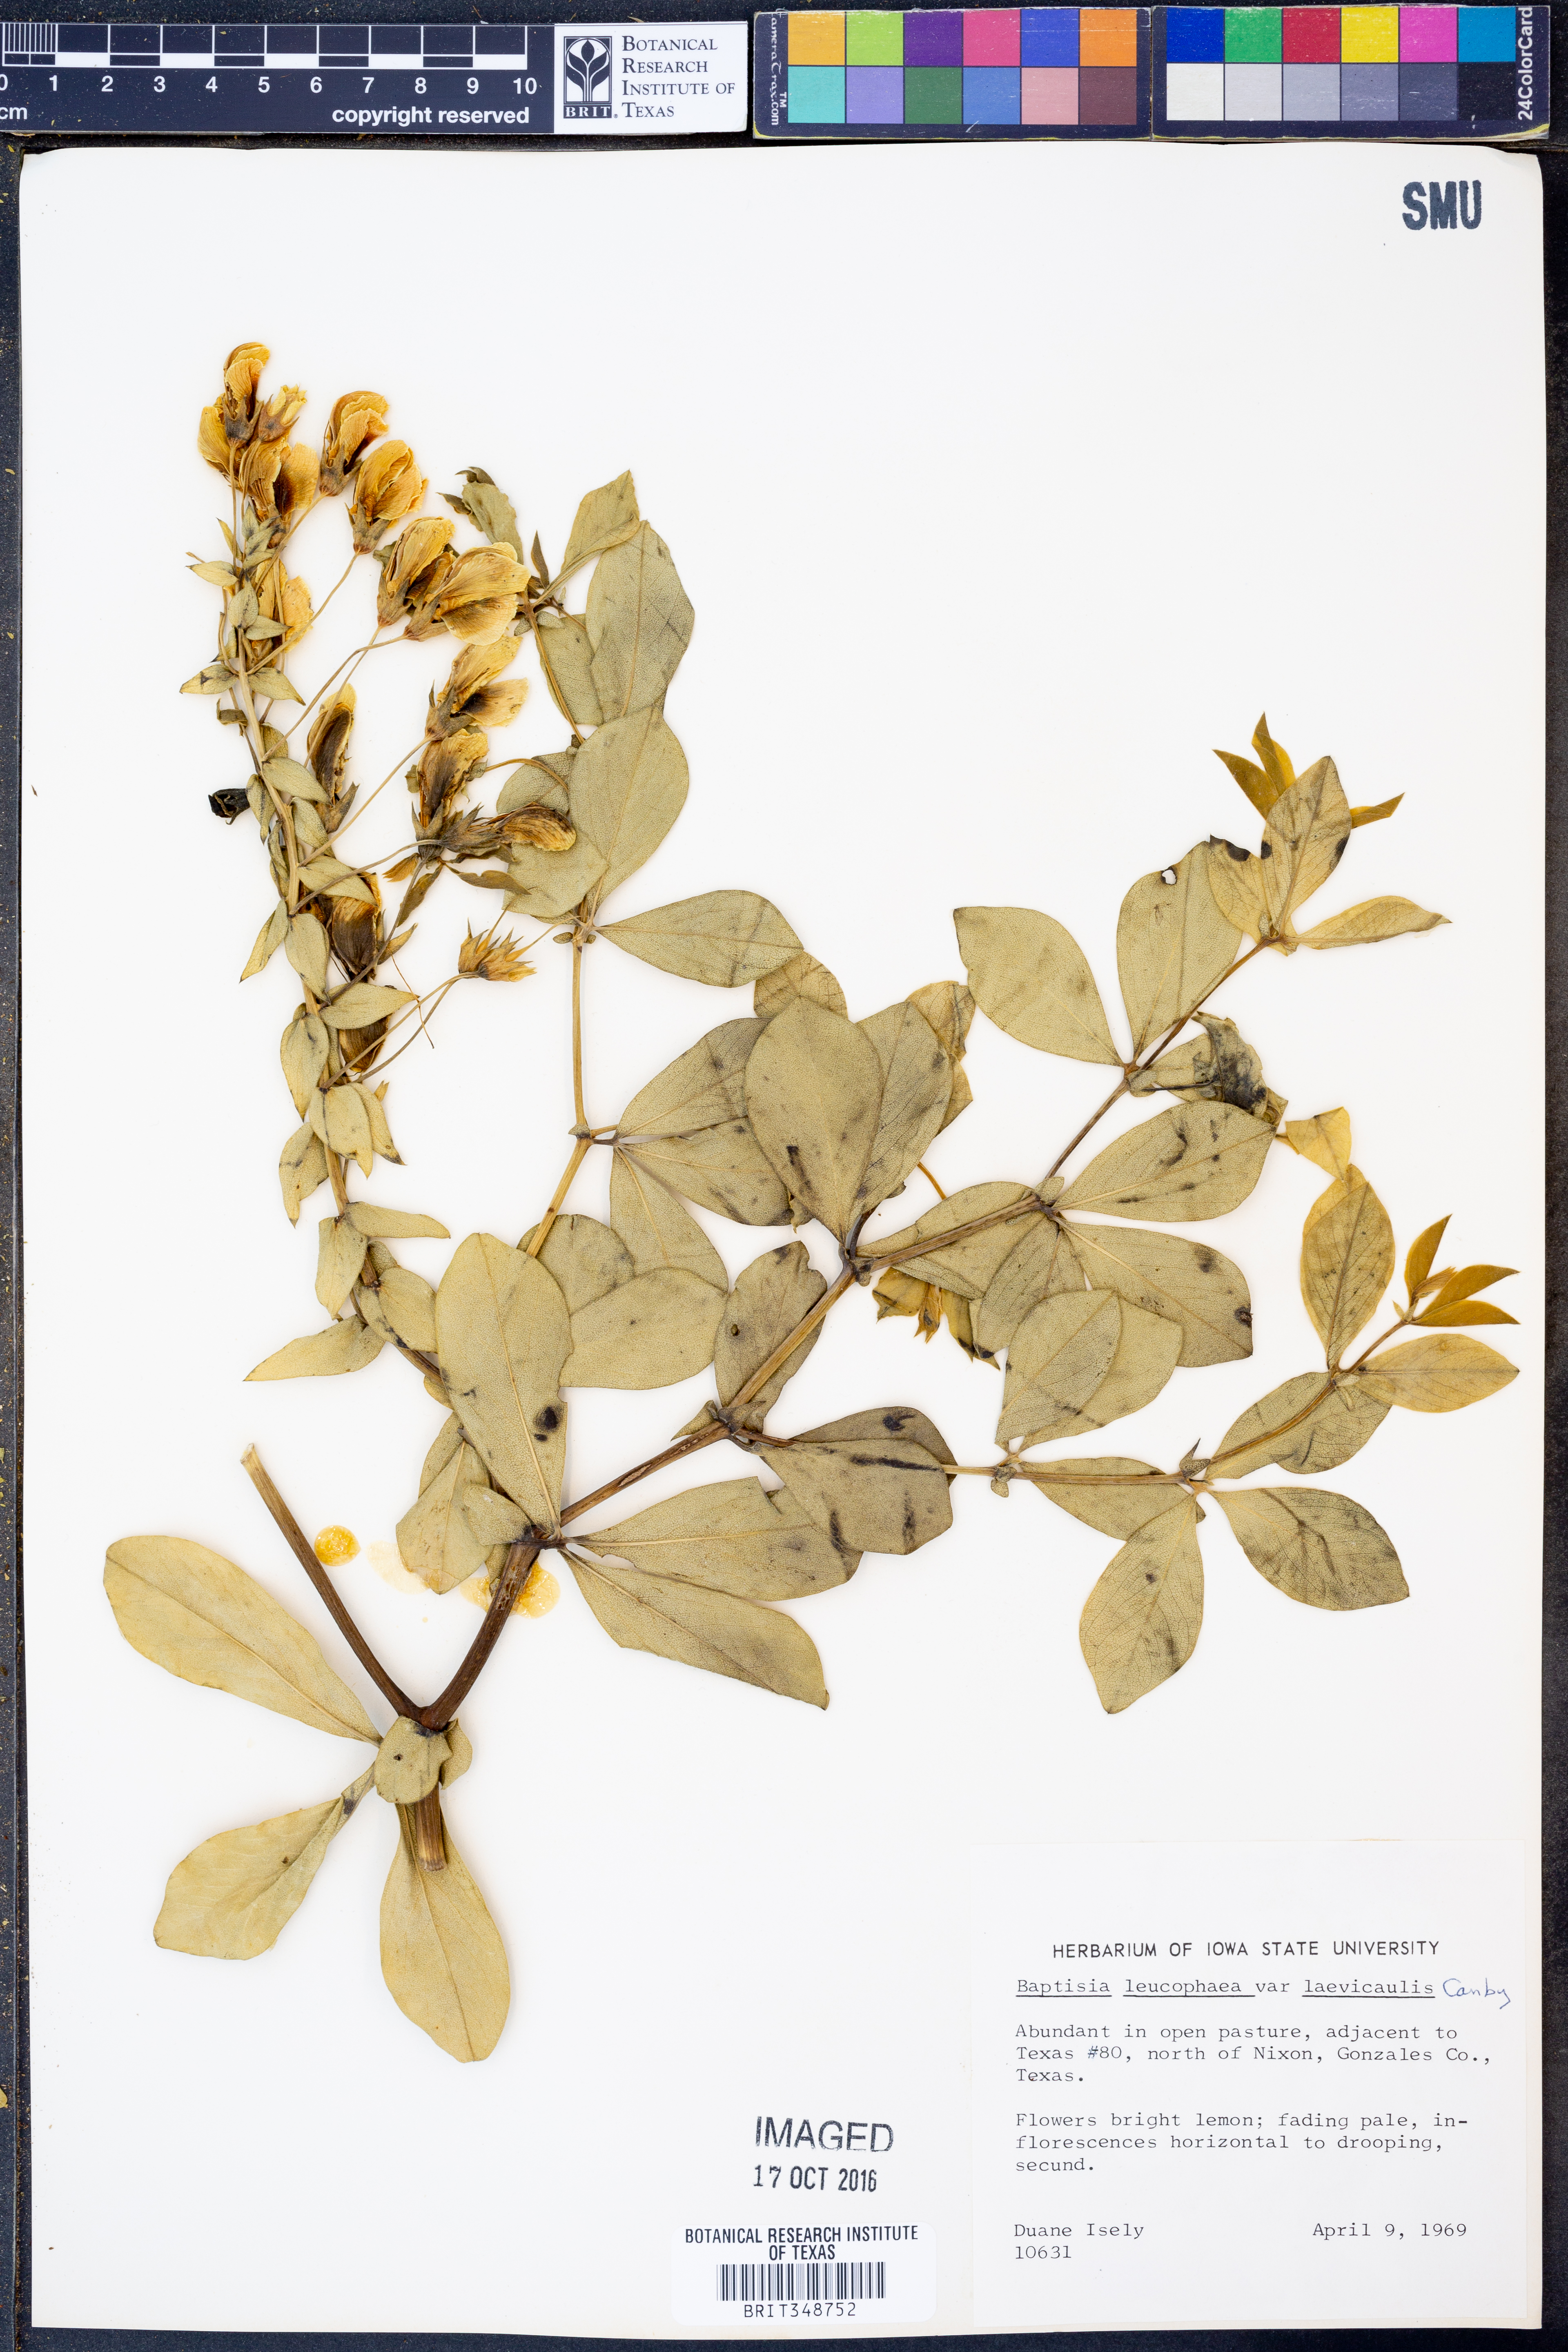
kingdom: Plantae
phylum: Tracheophyta
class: Magnoliopsida
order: Fabales
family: Fabaceae
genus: Baptisia
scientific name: Baptisia bracteata
